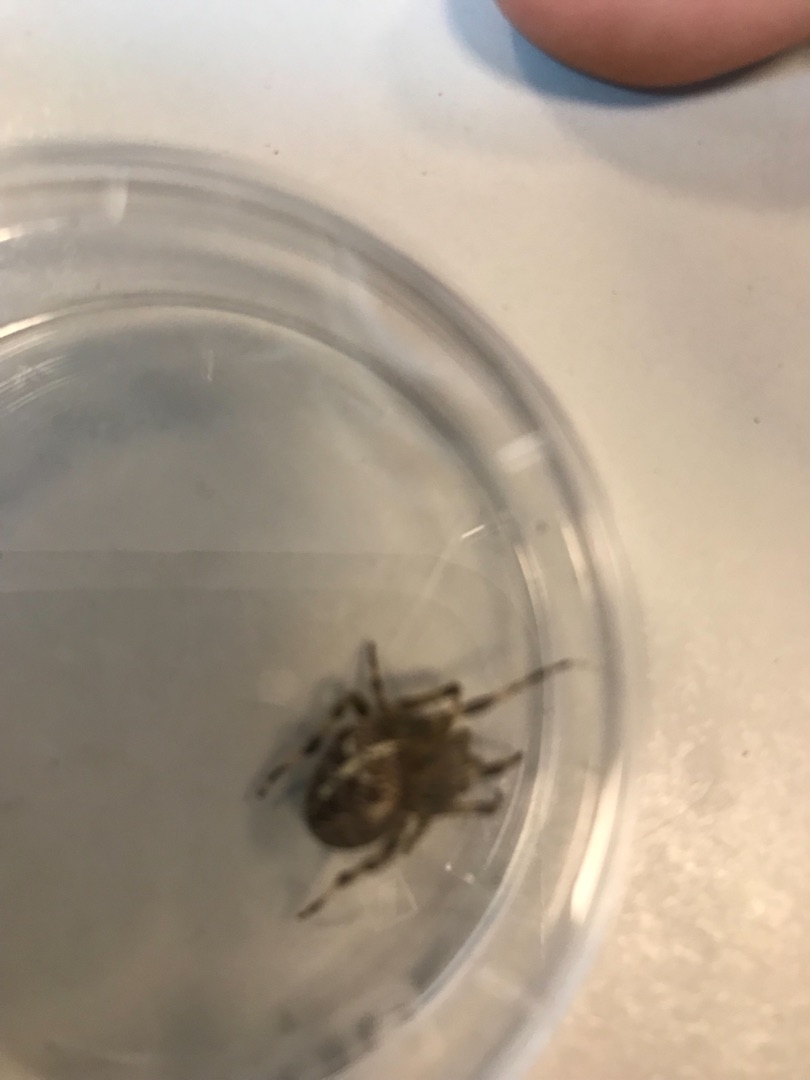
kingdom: Animalia
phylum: Arthropoda
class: Arachnida
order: Araneae
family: Araneidae
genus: Araneus
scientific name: Araneus diadematus
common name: Korsedderkop
